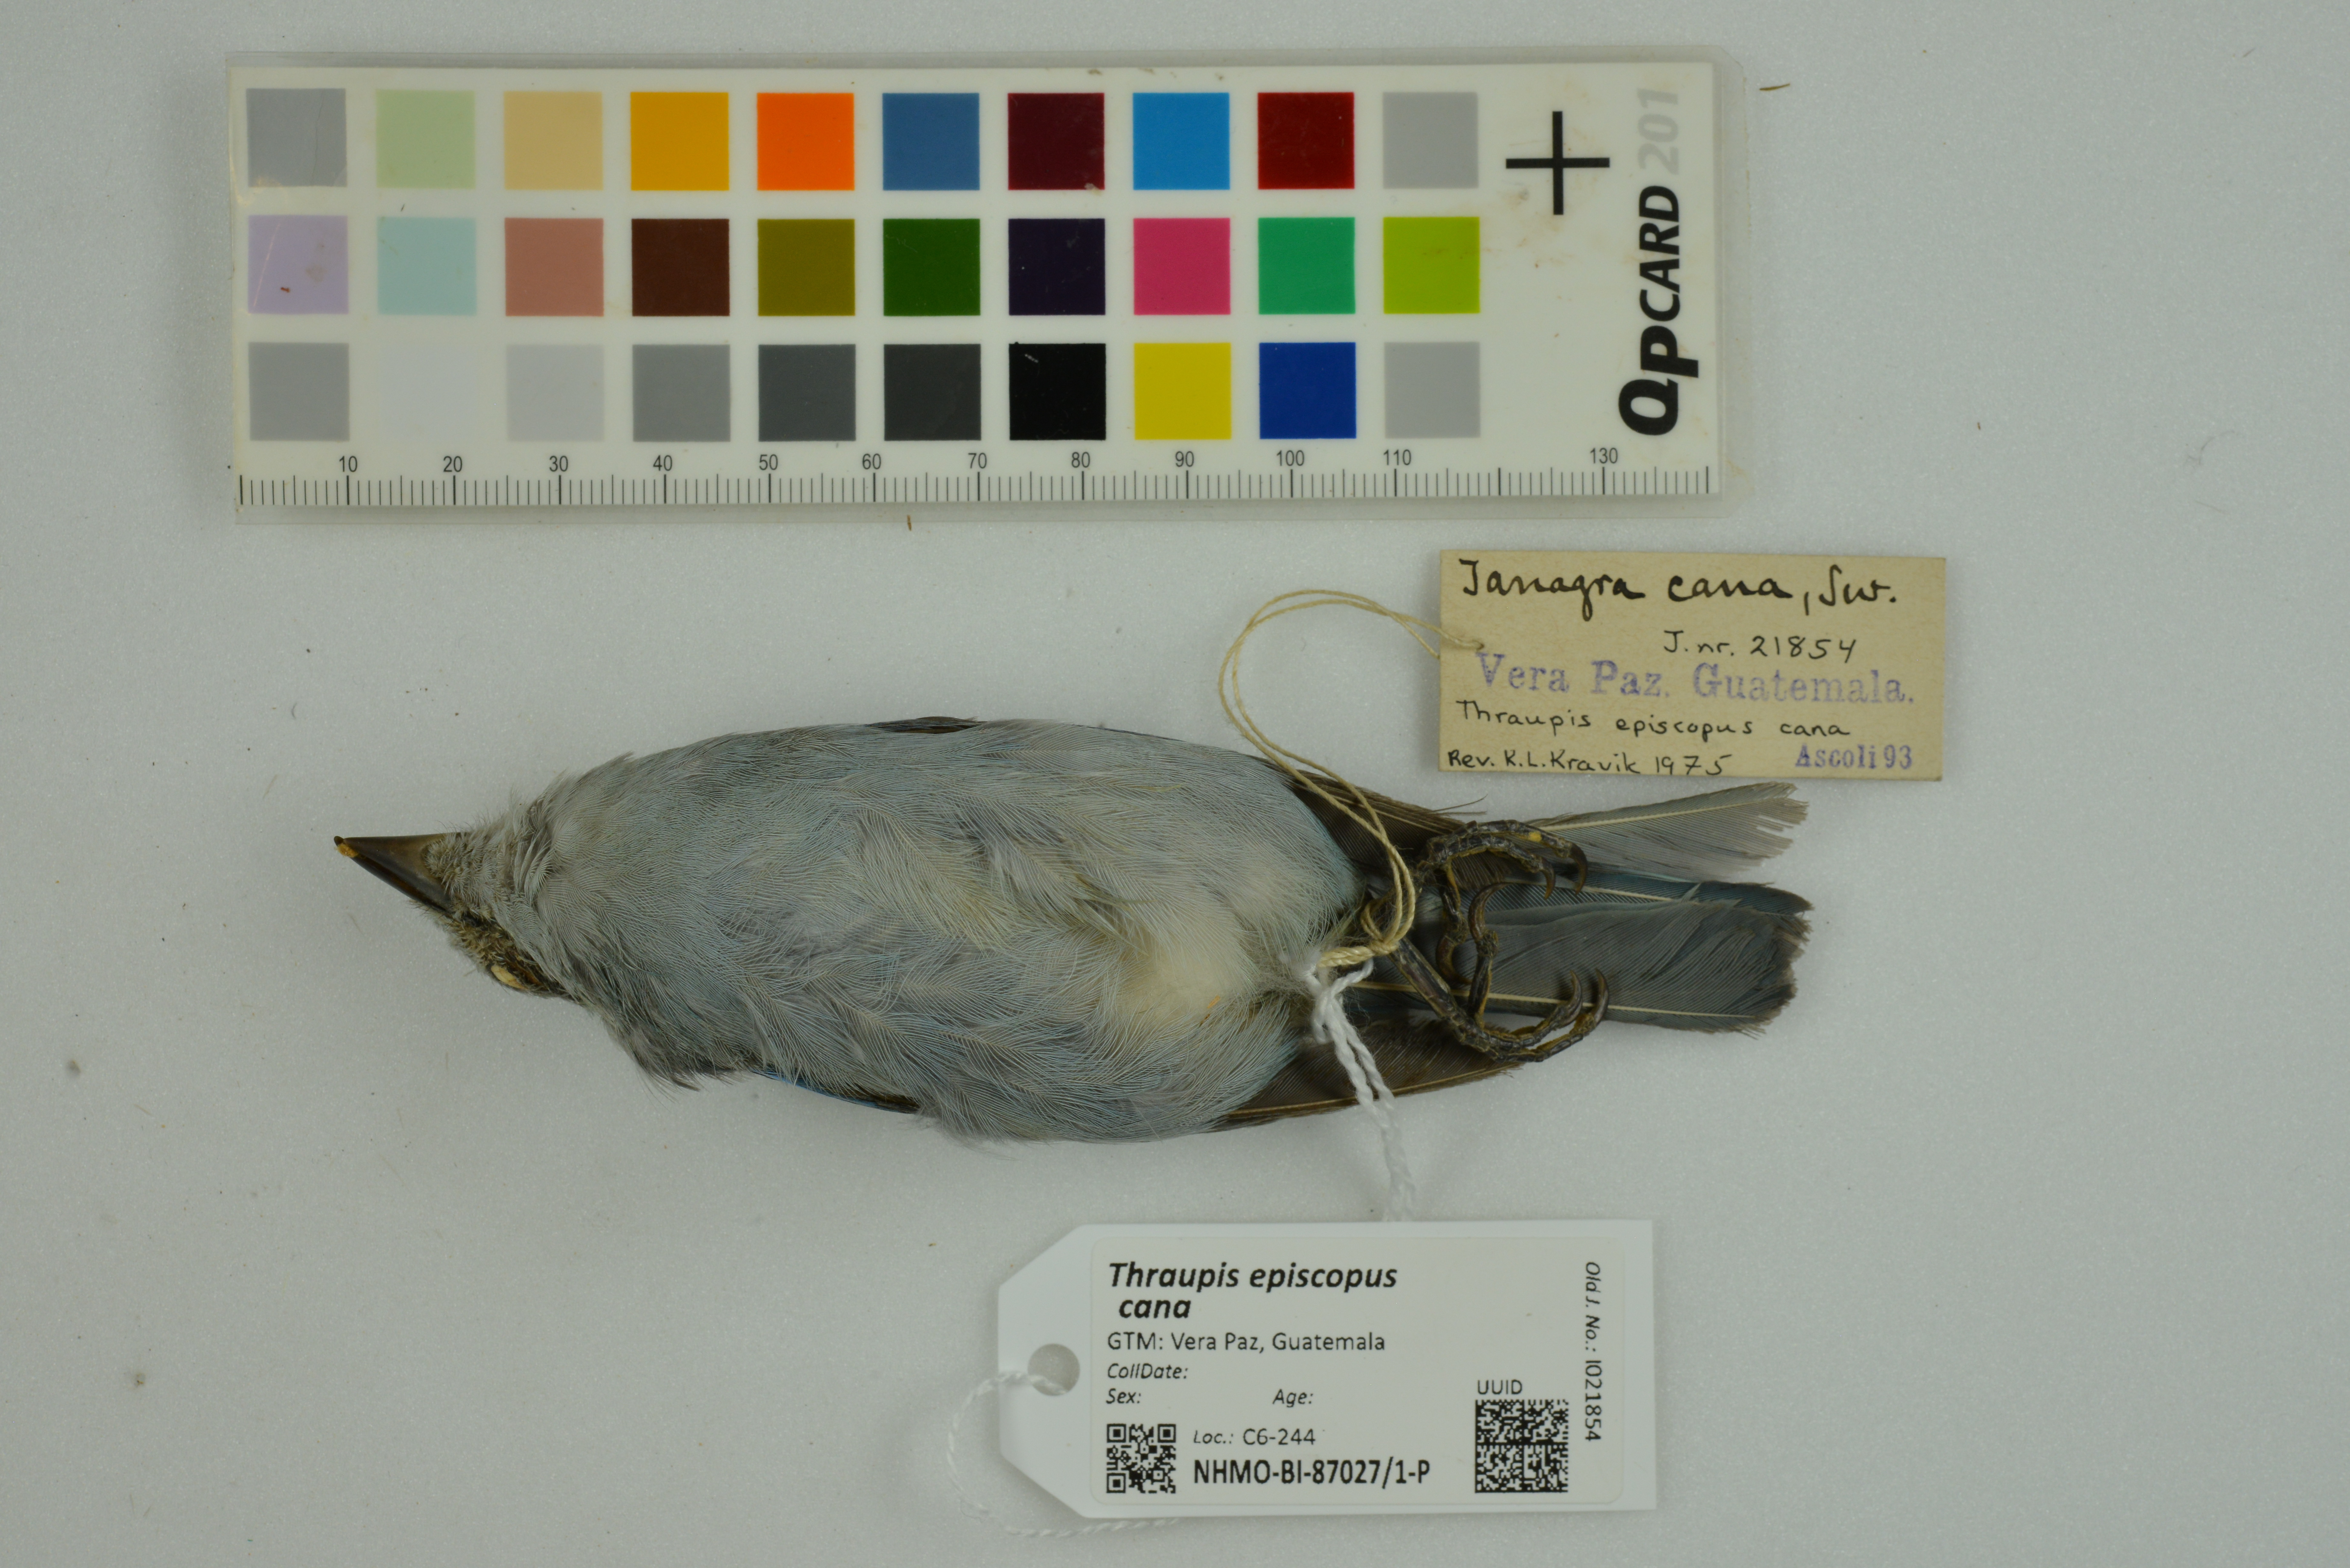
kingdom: Animalia
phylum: Chordata
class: Aves
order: Passeriformes
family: Thraupidae
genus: Thraupis
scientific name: Thraupis episcopus
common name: Blue-grey tanager
